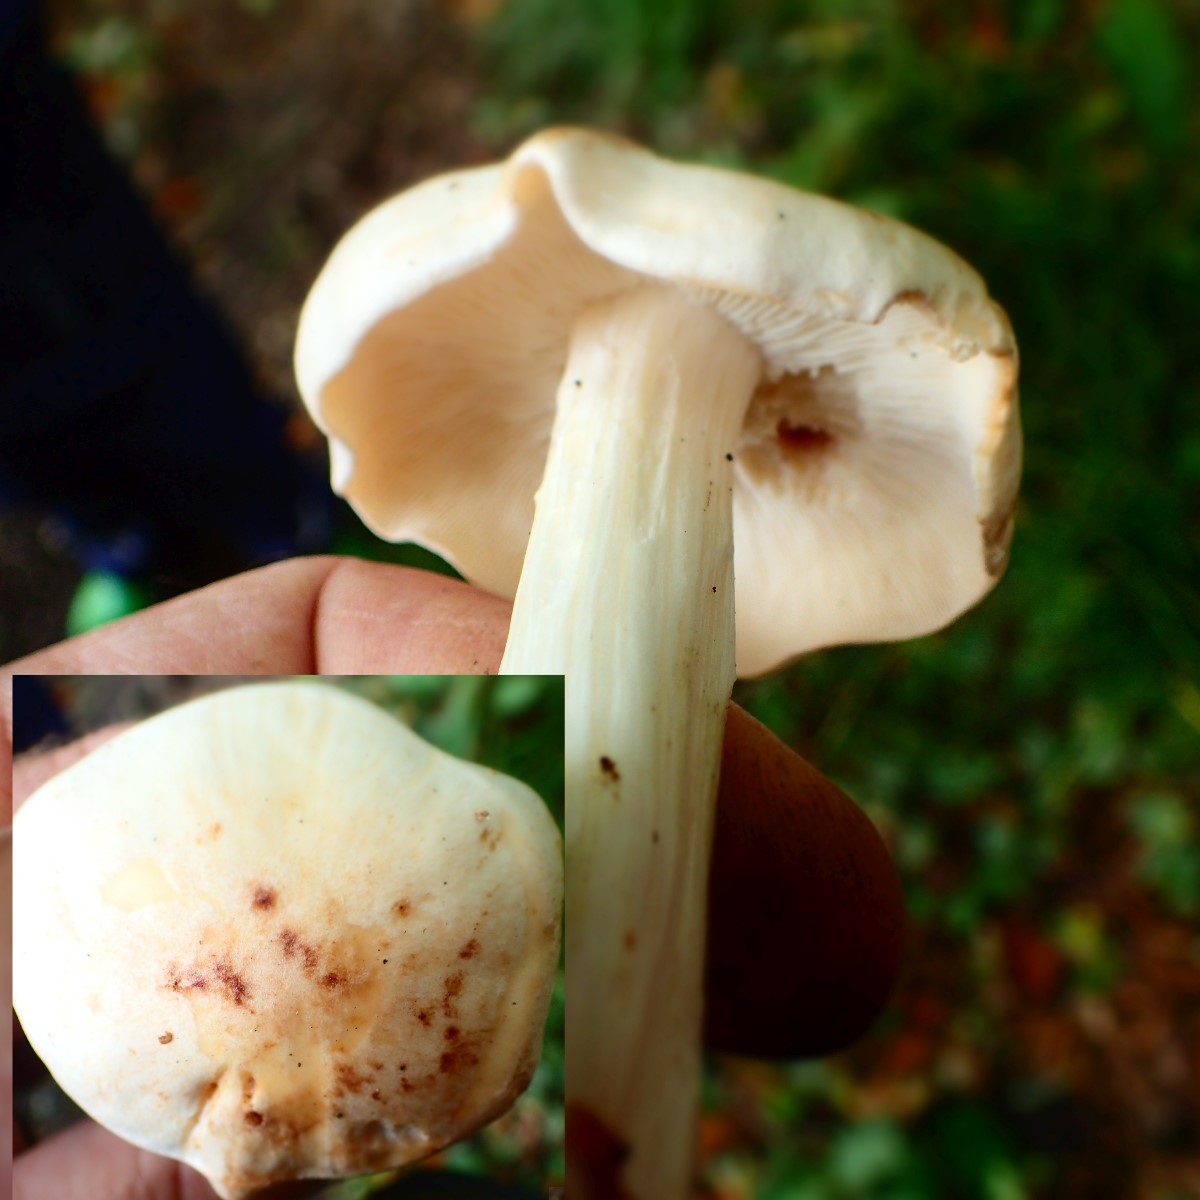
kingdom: Fungi
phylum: Basidiomycota
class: Agaricomycetes
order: Agaricales
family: Omphalotaceae
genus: Rhodocollybia
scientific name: Rhodocollybia maculata
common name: plettet fladhat
